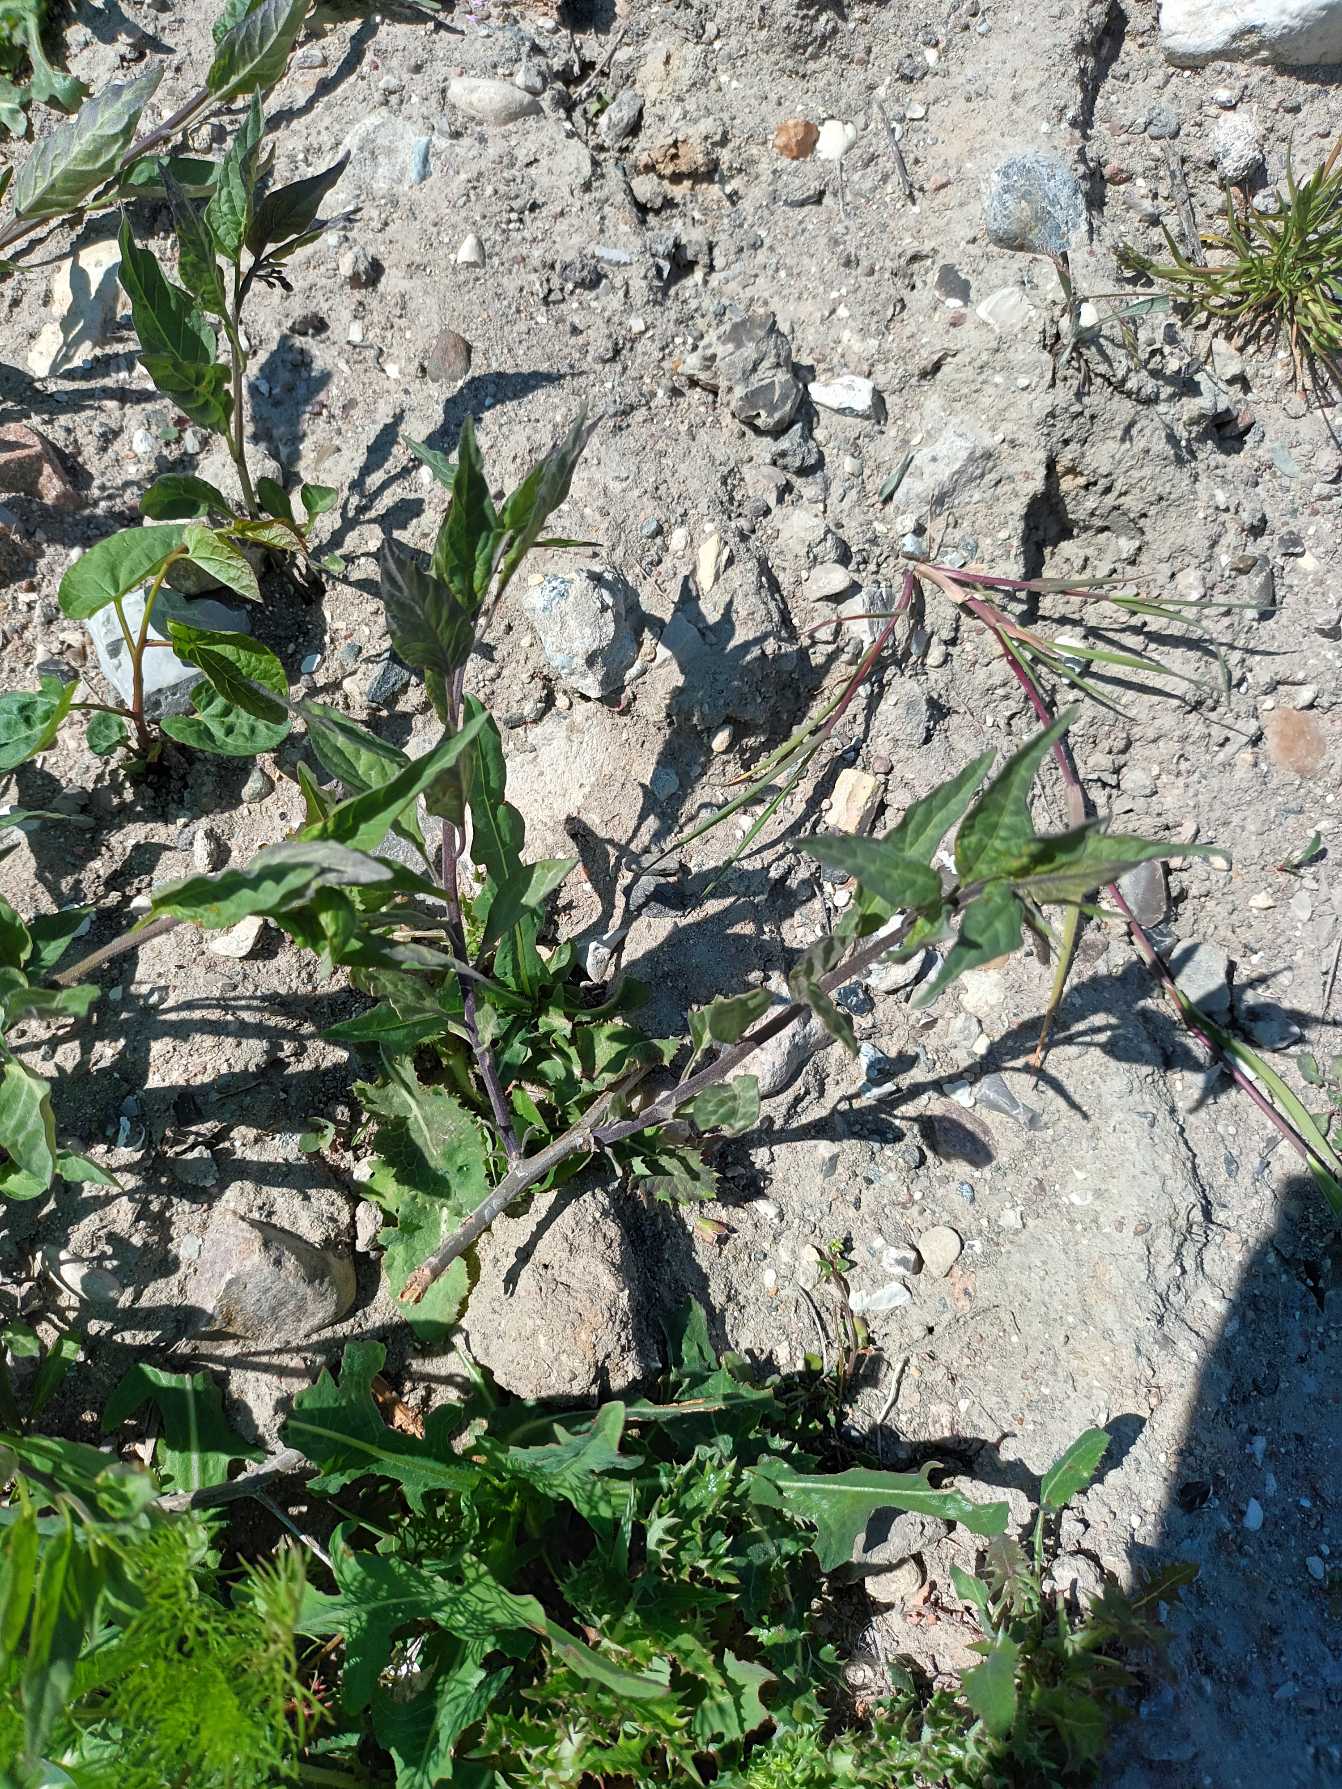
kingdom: Plantae
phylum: Tracheophyta
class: Magnoliopsida
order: Solanales
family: Solanaceae
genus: Solanum
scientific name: Solanum dulcamara
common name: Bittersød natskygge
